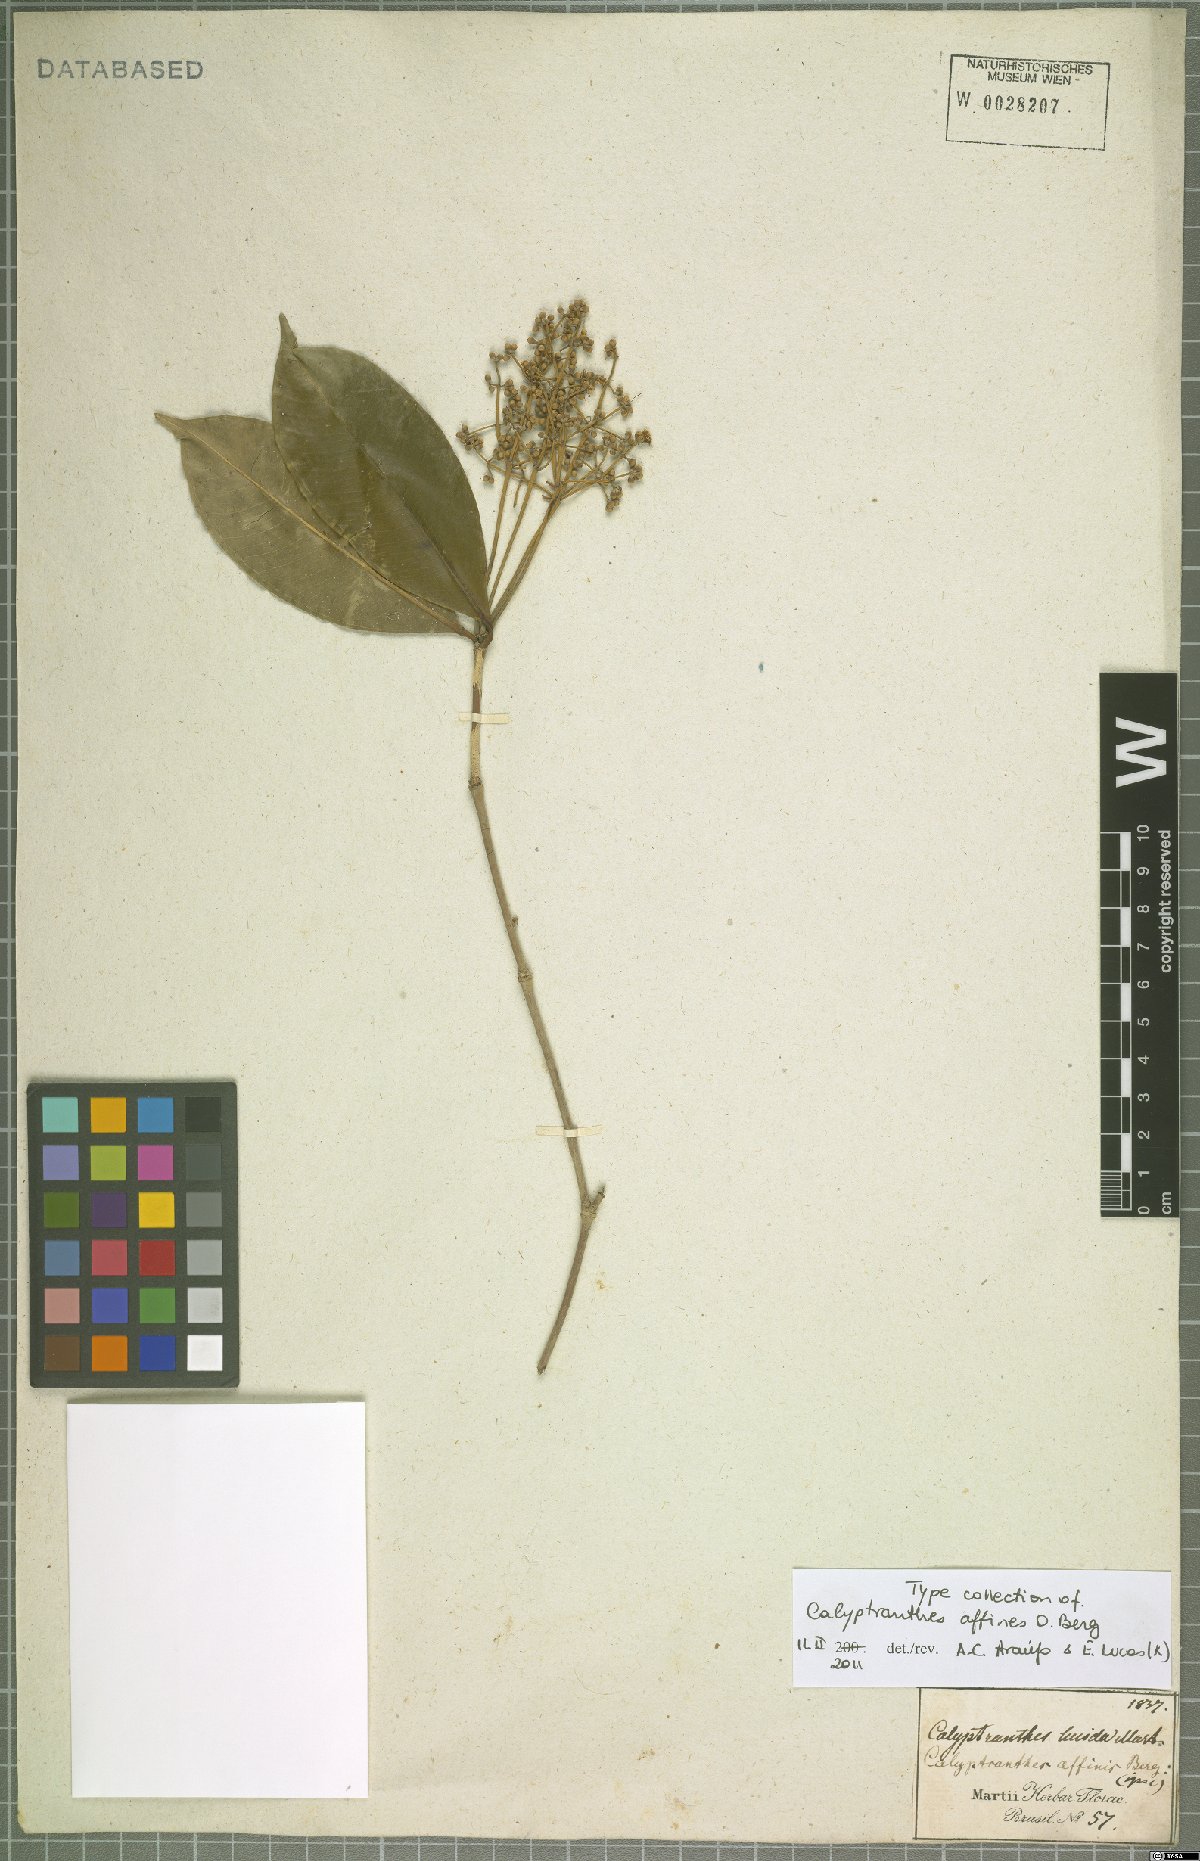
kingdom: Plantae
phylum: Tracheophyta
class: Magnoliopsida
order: Myrtales
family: Myrtaceae
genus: Calyptranthes
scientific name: Calyptranthes affinis
